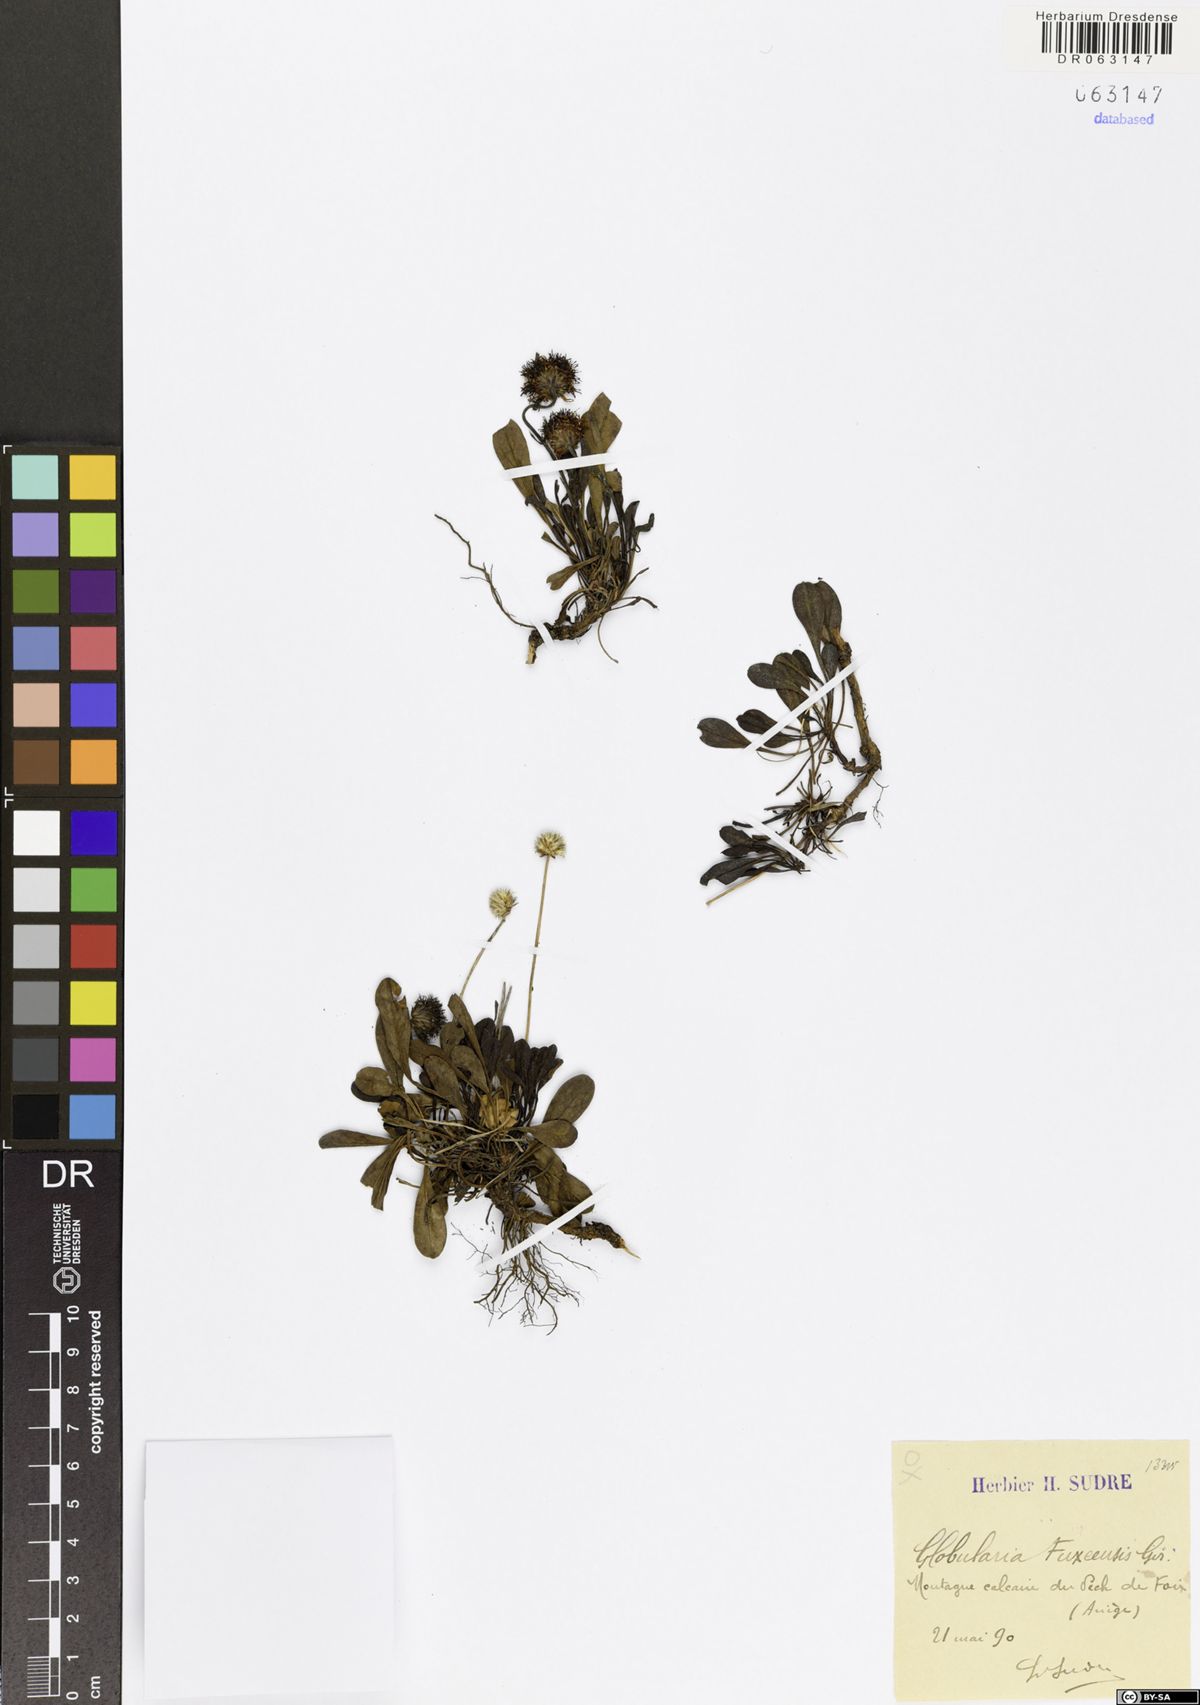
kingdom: Plantae
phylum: Tracheophyta
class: Magnoliopsida
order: Lamiales
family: Plantaginaceae
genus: Globularia
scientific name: Globularia fuxeensis
